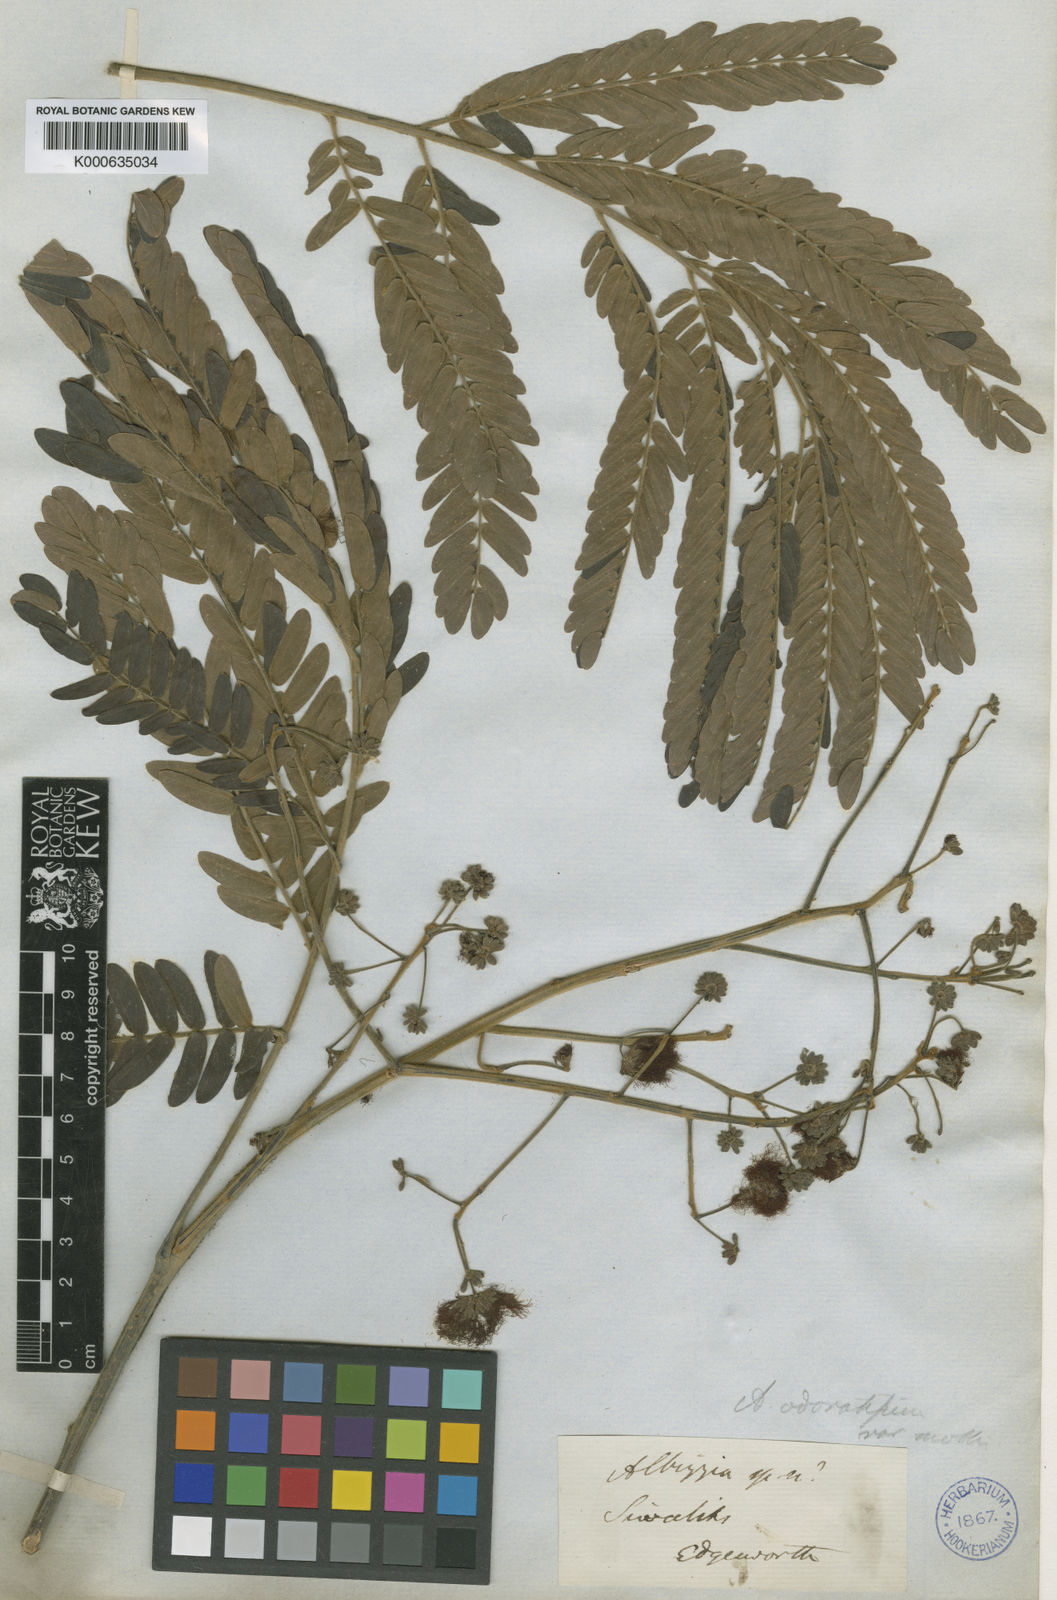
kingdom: Plantae
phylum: Tracheophyta
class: Magnoliopsida
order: Fabales
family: Fabaceae
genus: Albizia
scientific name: Albizia odoratissima
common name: Ceylon rosewood
